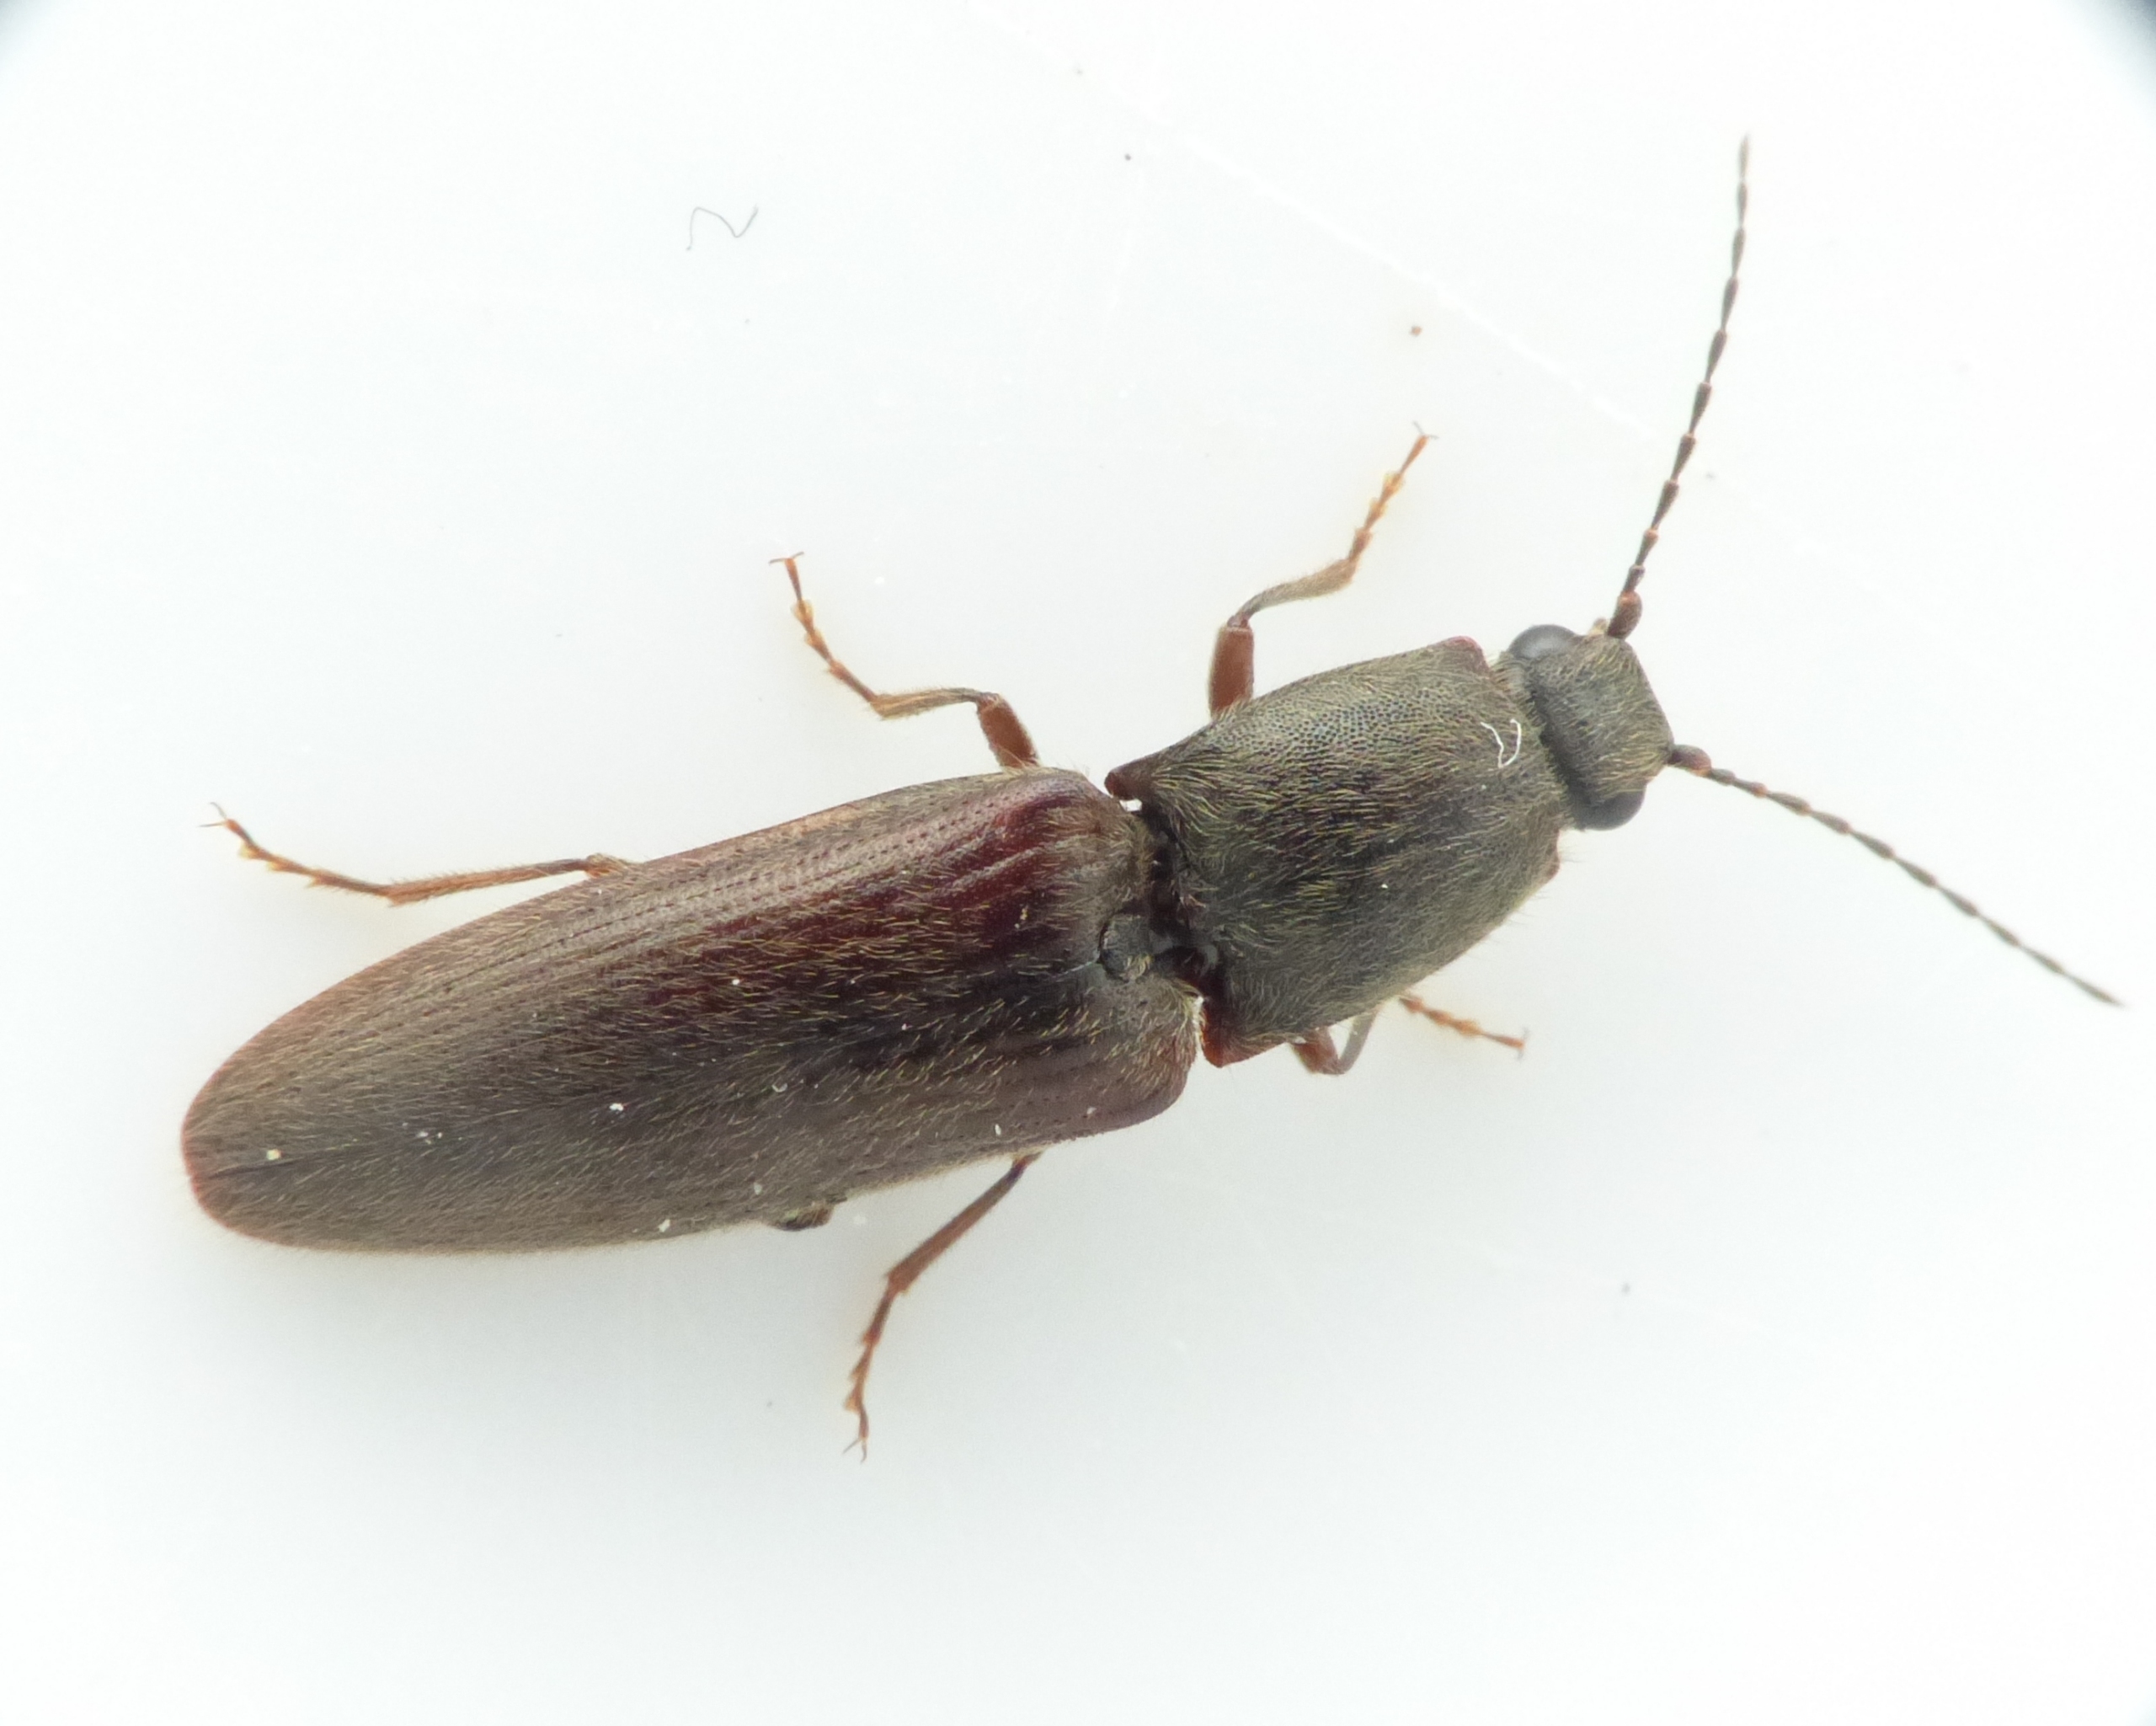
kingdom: Animalia
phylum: Arthropoda
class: Insecta
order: Coleoptera
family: Elateridae
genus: Athous
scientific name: Athous haemorrhoidalis
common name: Rødhalet busksmælder
